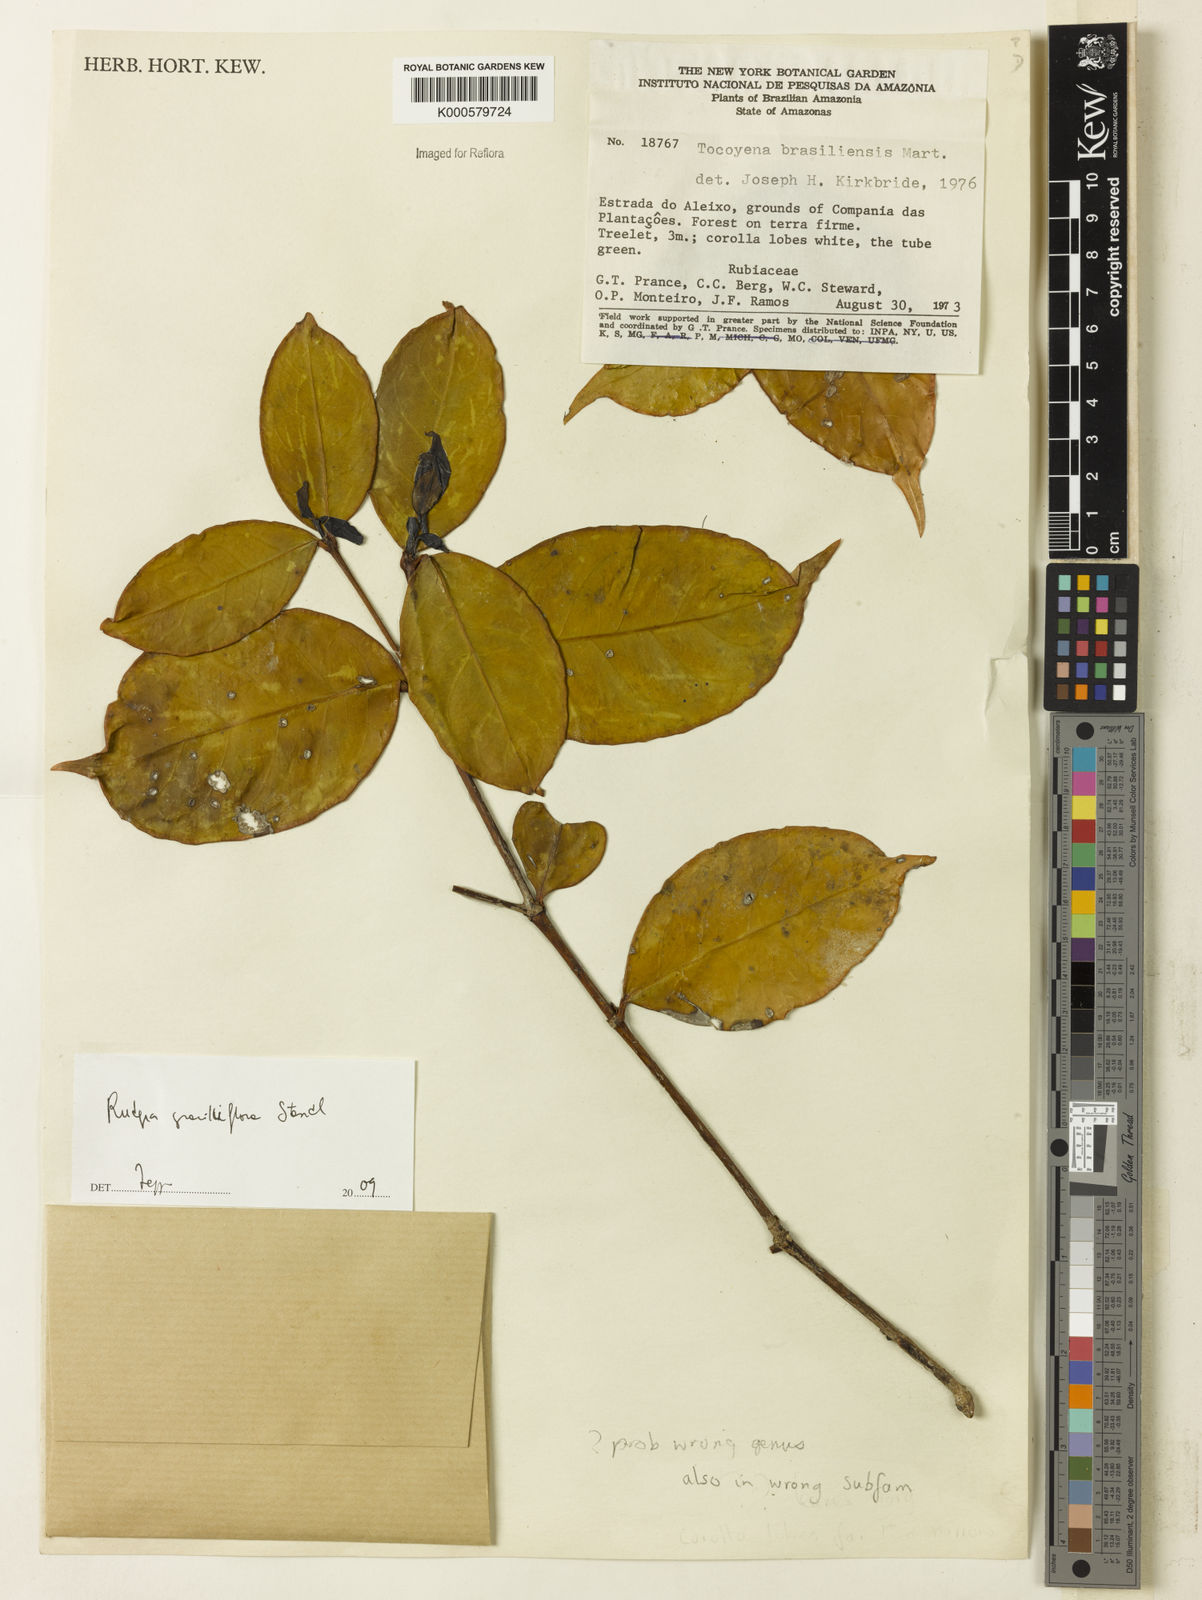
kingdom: Plantae
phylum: Tracheophyta
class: Magnoliopsida
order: Gentianales
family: Rubiaceae
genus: Rudgea
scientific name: Rudgea graciliflora
